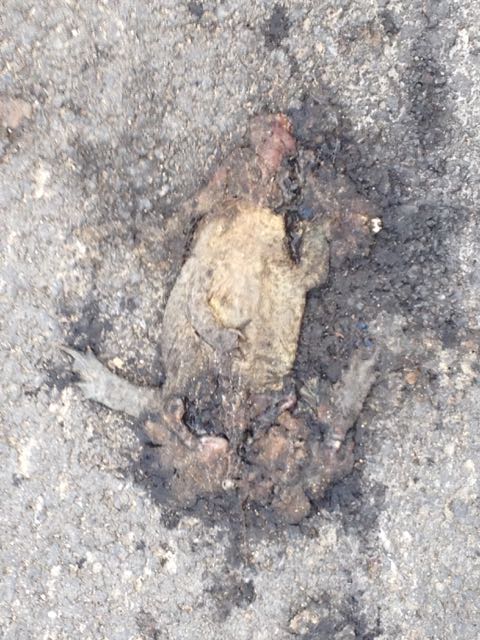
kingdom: Animalia
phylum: Chordata
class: Amphibia
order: Anura
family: Bufonidae
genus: Bufo
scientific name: Bufo bufo
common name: Common toad
